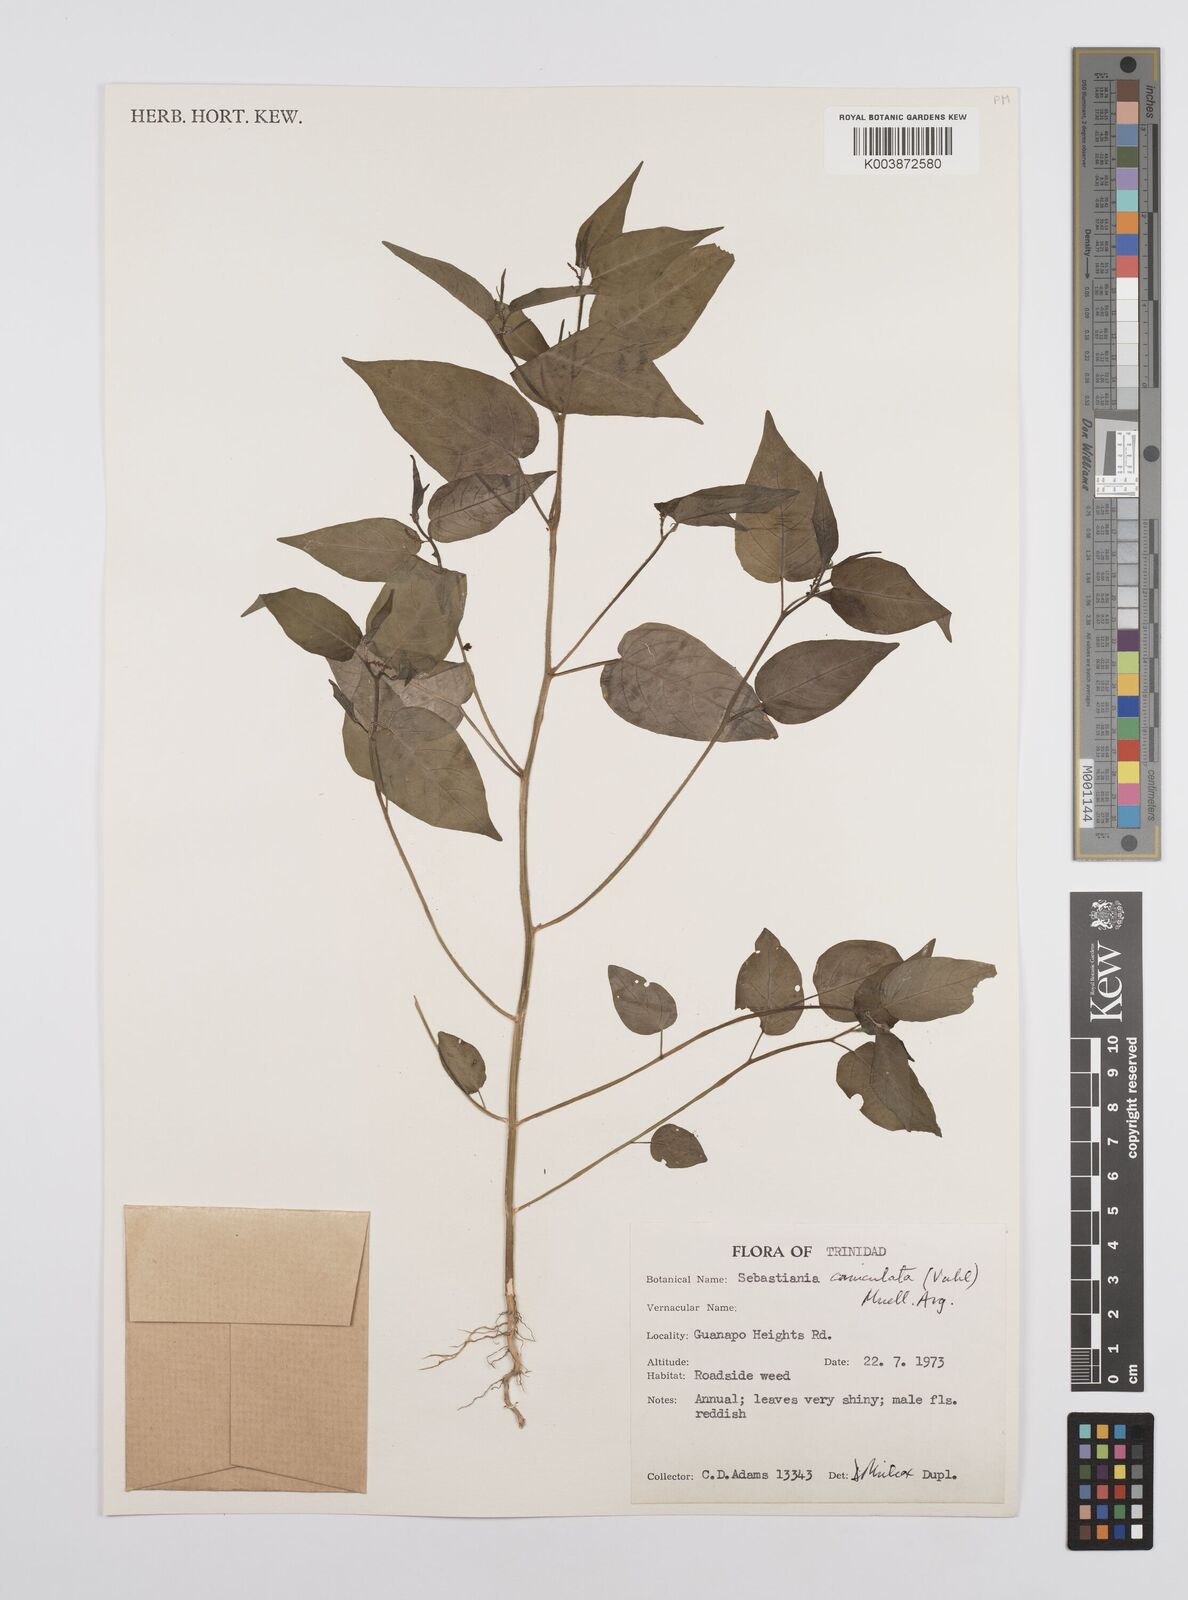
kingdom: Plantae
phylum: Tracheophyta
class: Magnoliopsida
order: Malpighiales
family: Euphorbiaceae
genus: Microstachys
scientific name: Microstachys corniculata
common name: Hato tejas
